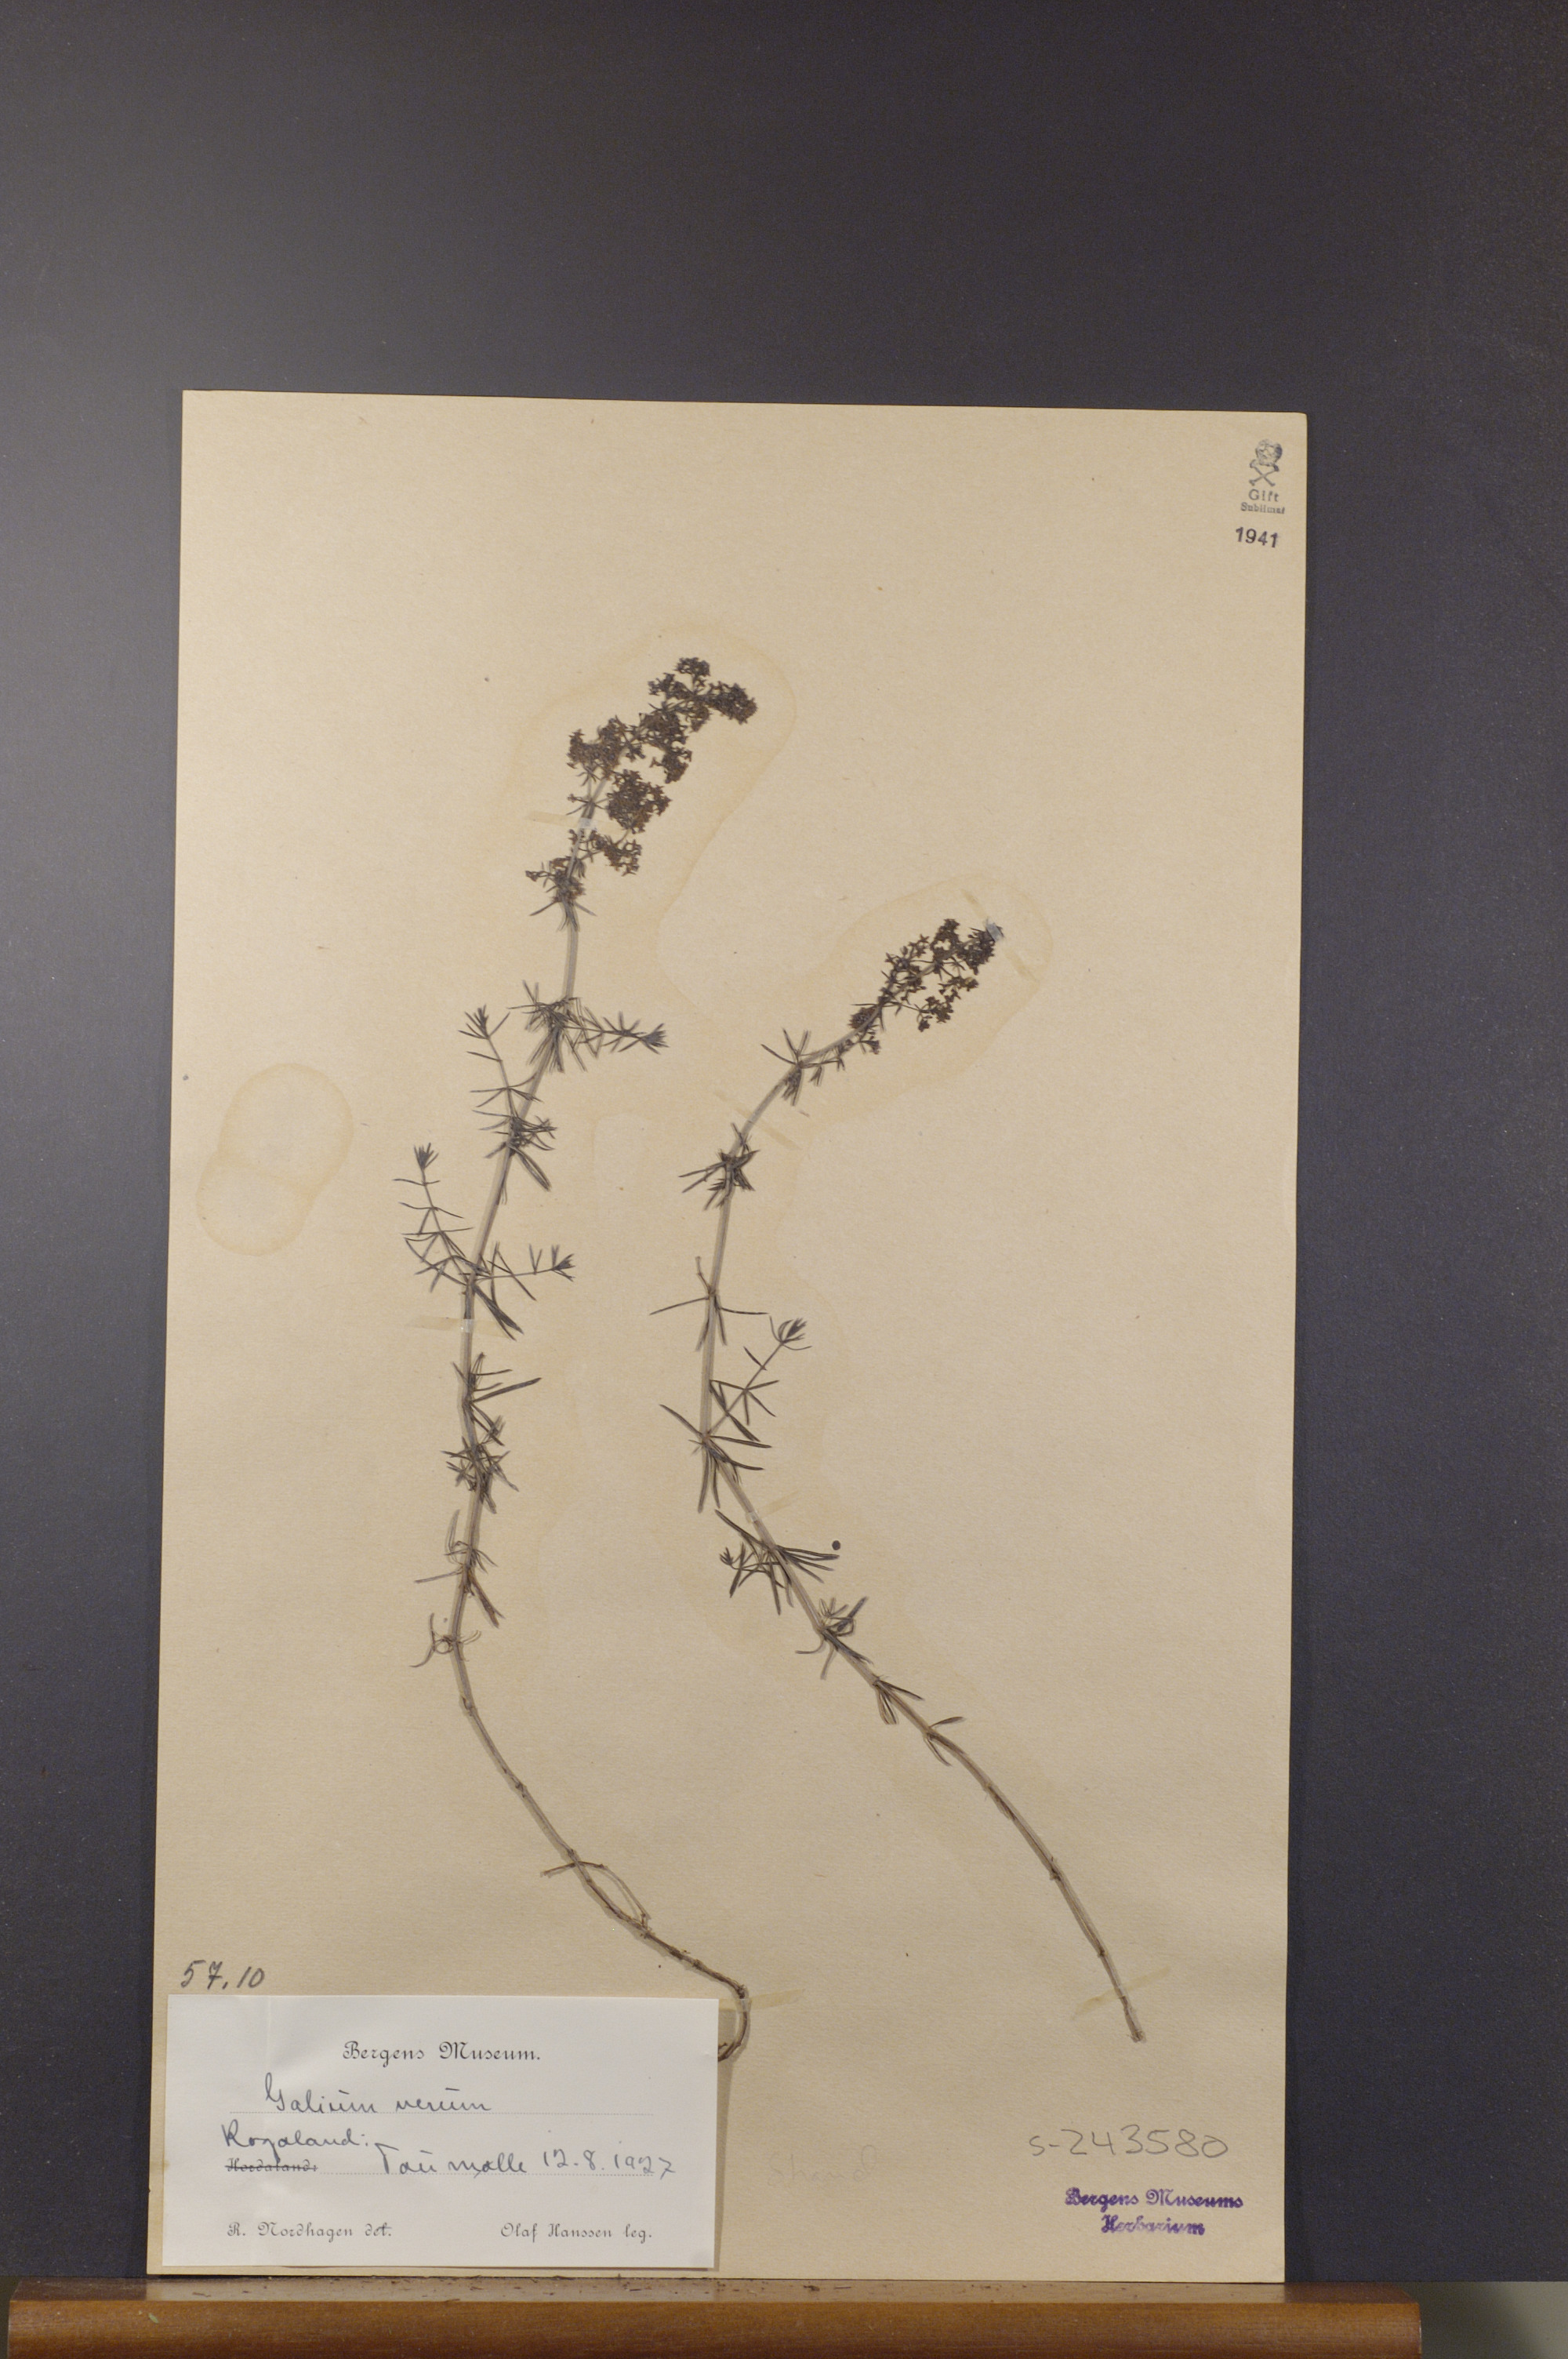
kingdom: Plantae
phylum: Tracheophyta
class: Magnoliopsida
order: Gentianales
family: Rubiaceae
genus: Galium
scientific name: Galium verum
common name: Lady's bedstraw
